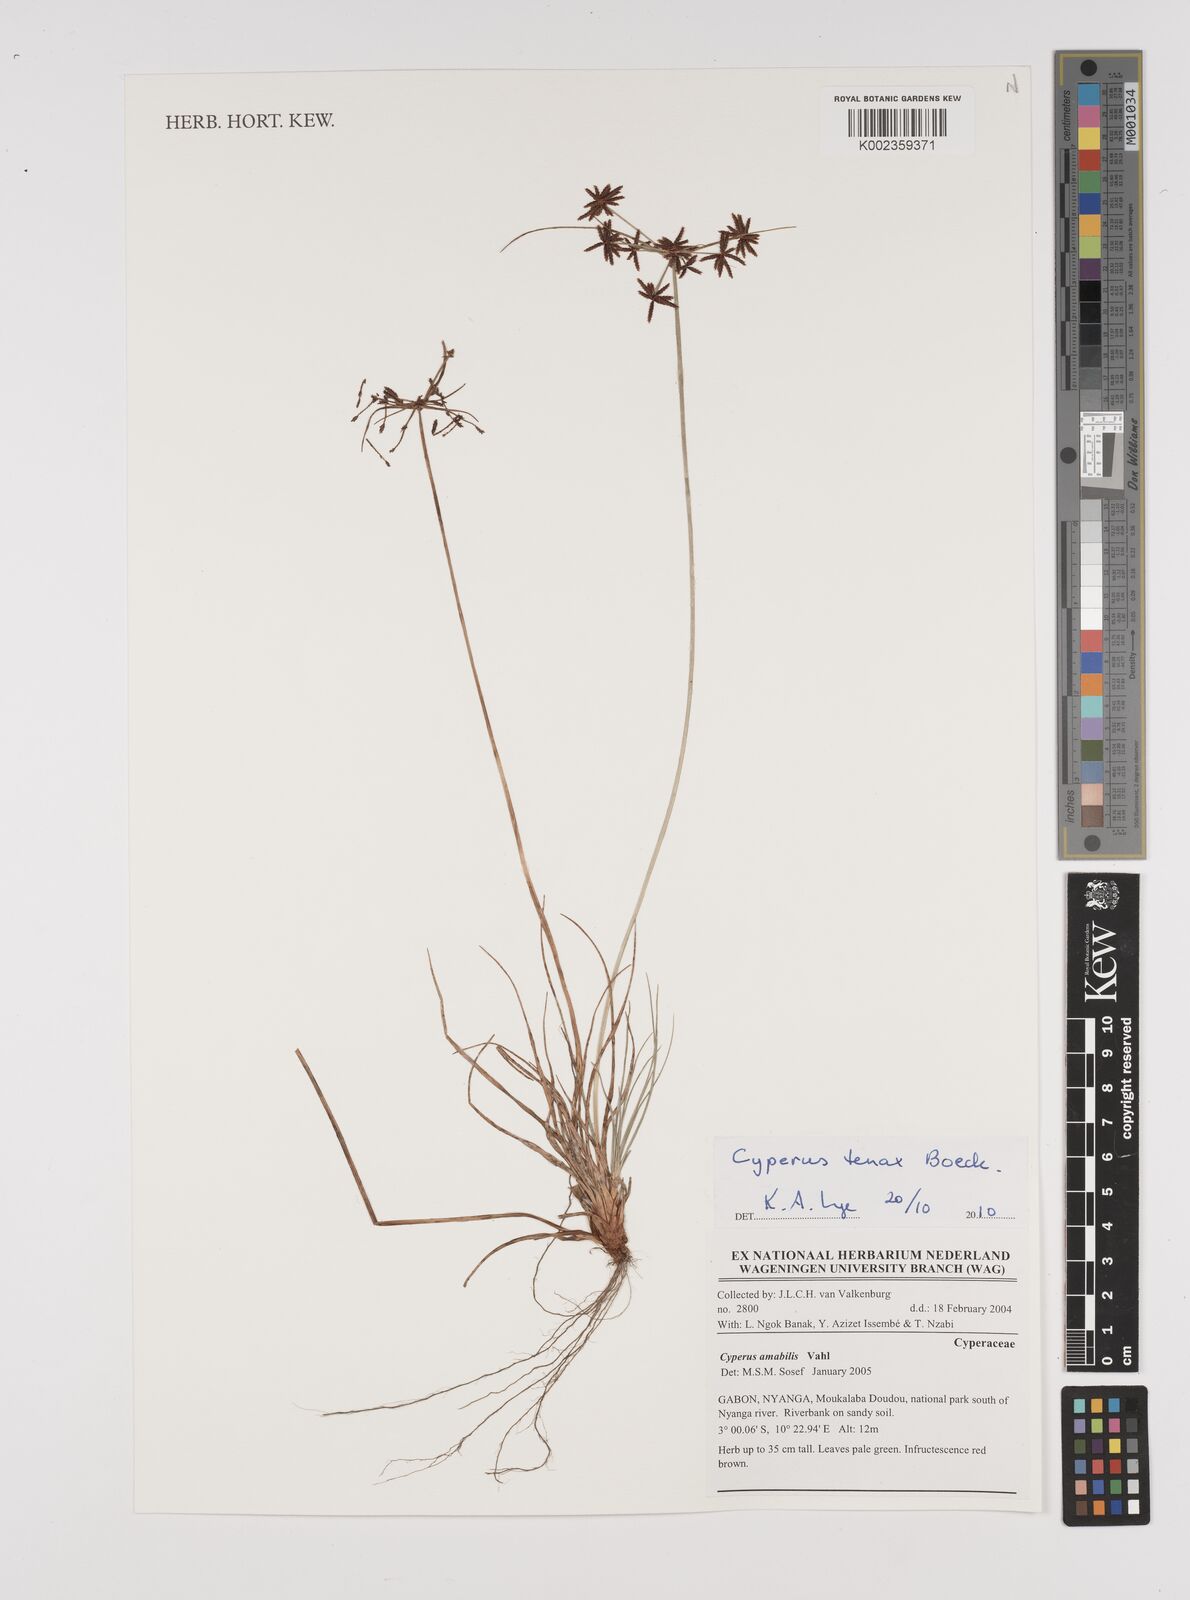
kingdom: Plantae
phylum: Tracheophyta
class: Liliopsida
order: Poales
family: Cyperaceae
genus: Cyperus
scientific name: Cyperus tenax
